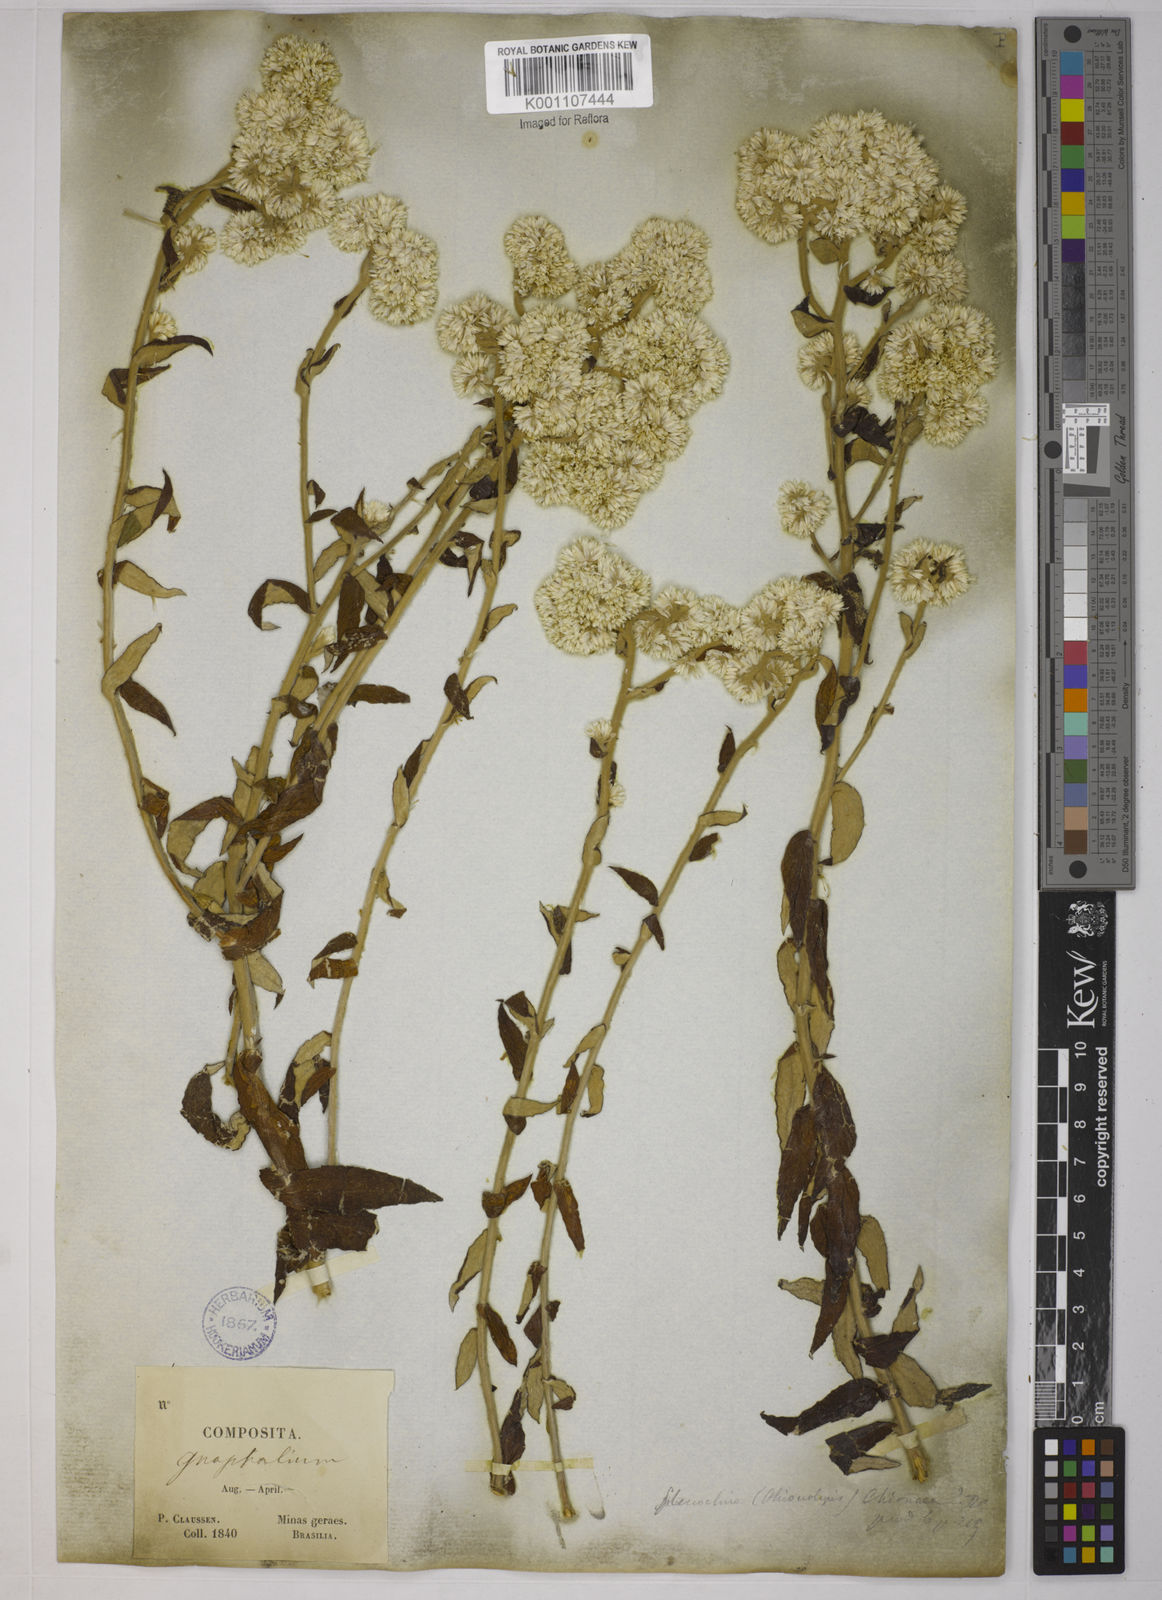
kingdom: Plantae
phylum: Tracheophyta
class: Magnoliopsida
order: Asterales
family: Asteraceae
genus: Achyrocline
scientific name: Achyrocline chionaea
